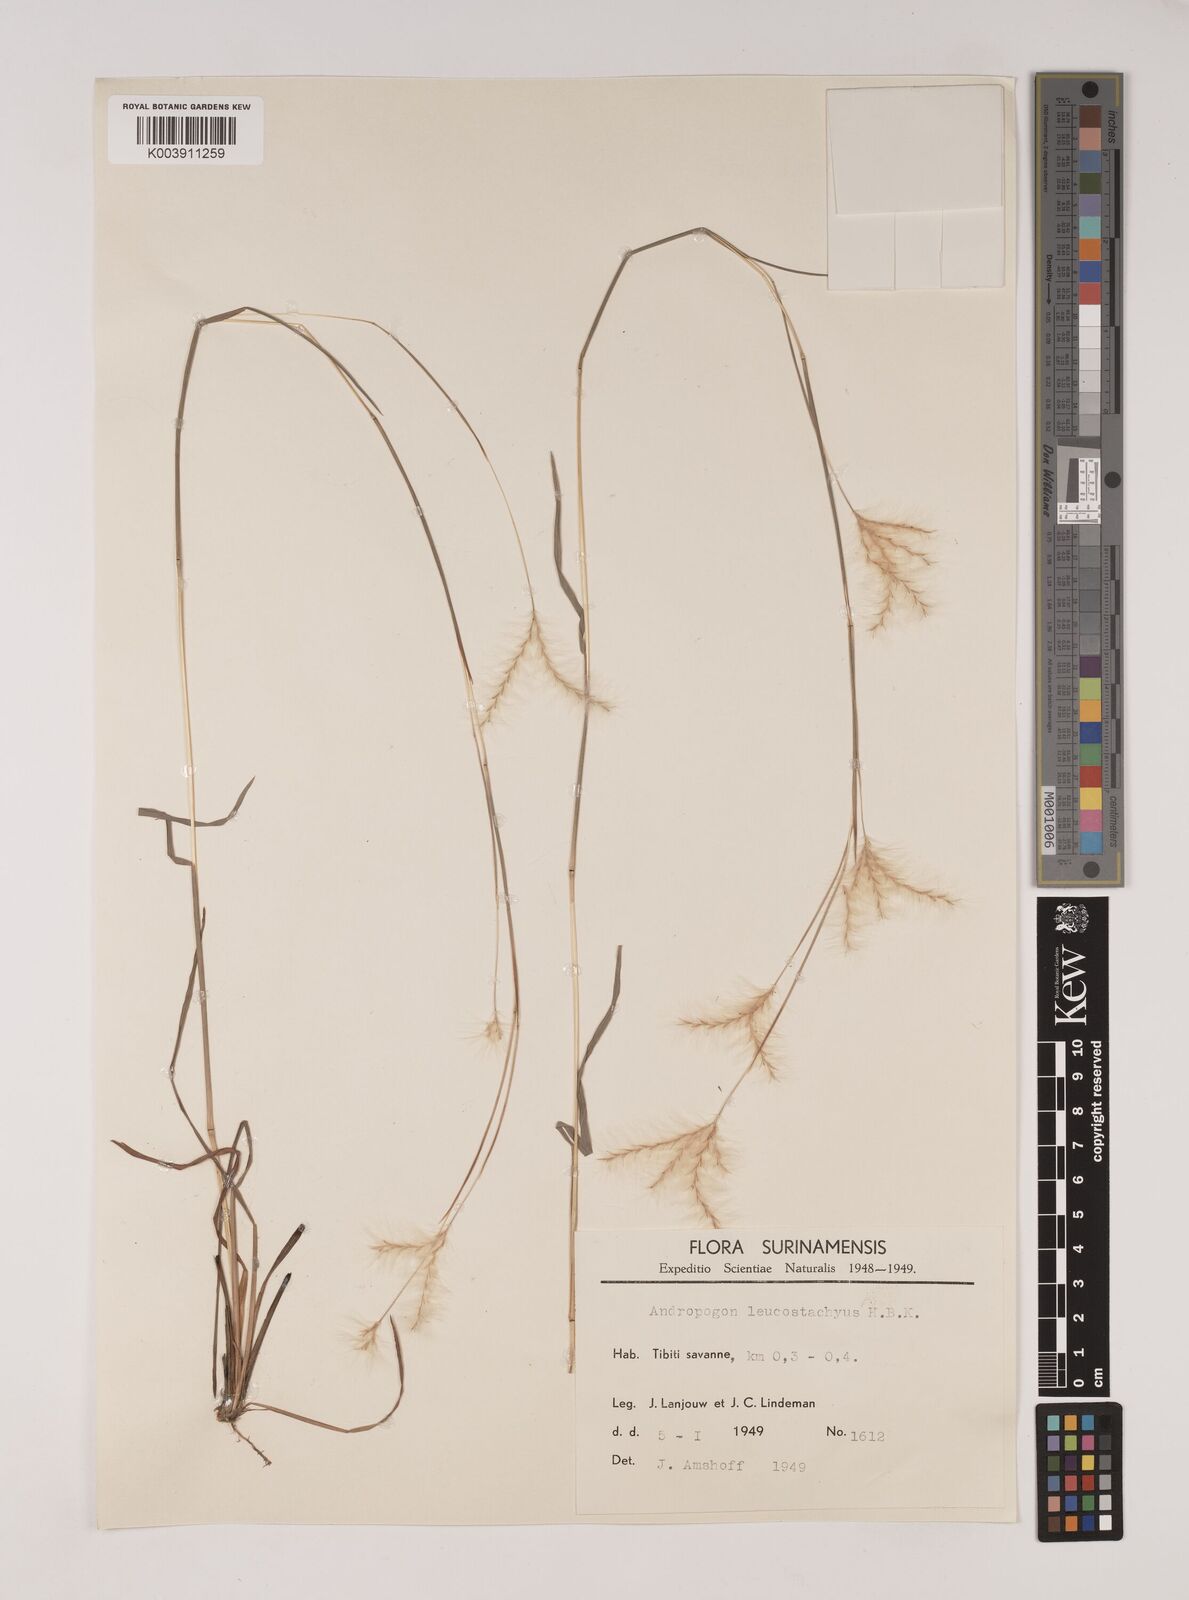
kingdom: Plantae
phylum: Tracheophyta
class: Liliopsida
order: Poales
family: Poaceae
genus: Andropogon
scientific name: Andropogon leucostachyus
